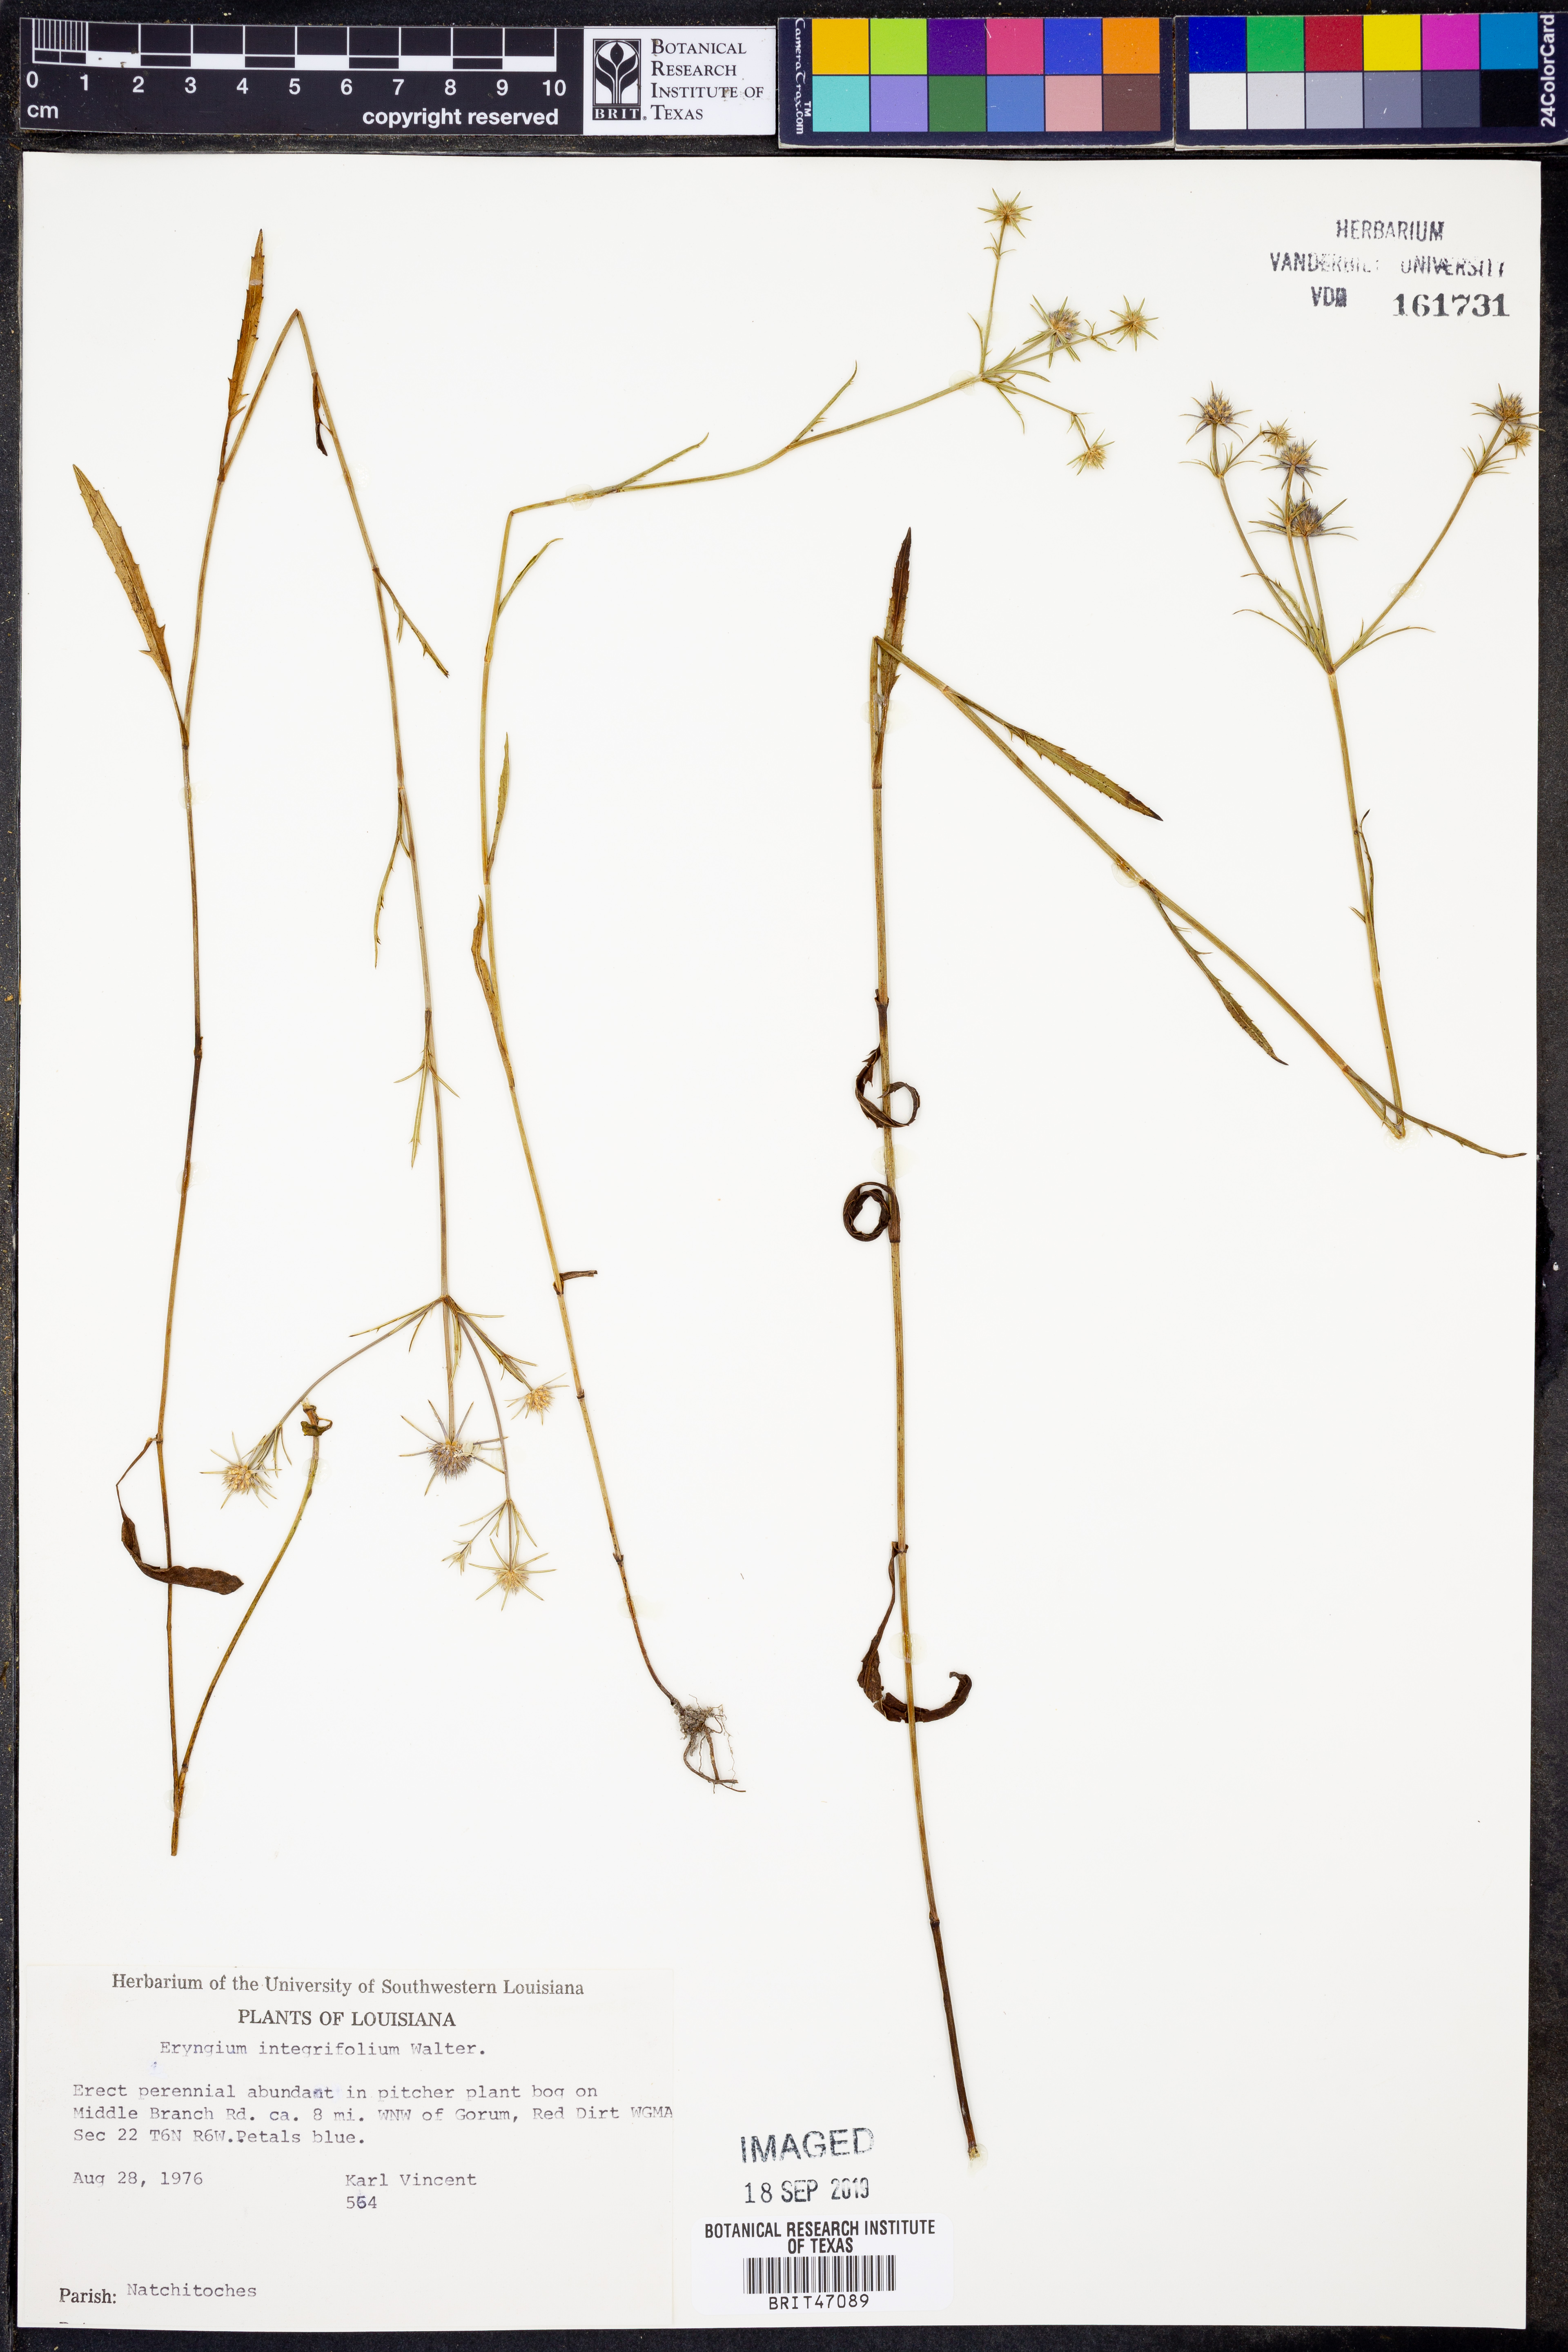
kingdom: Plantae
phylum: Tracheophyta
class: Magnoliopsida
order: Apiales
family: Apiaceae
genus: Eryngium
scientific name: Eryngium integrifolium
